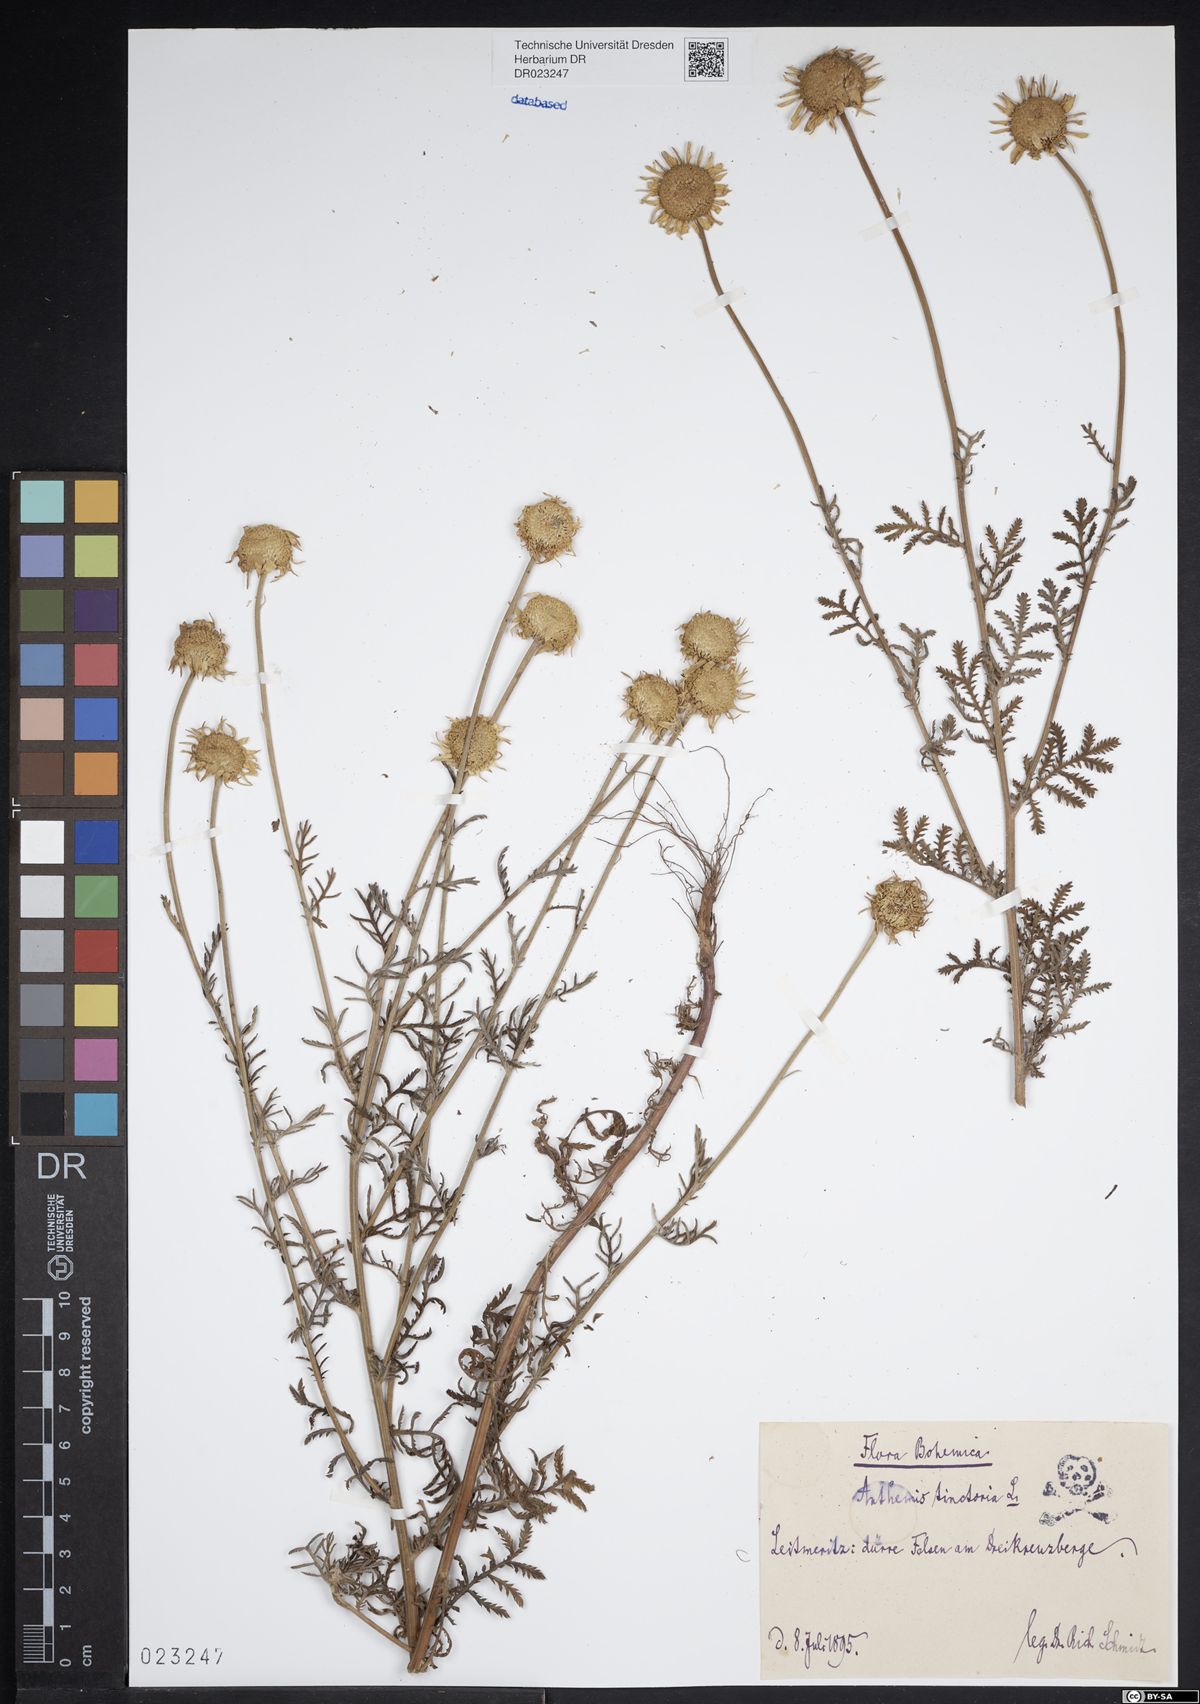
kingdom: Plantae
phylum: Tracheophyta
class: Magnoliopsida
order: Asterales
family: Asteraceae
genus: Cota
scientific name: Cota tinctoria
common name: Golden chamomile
